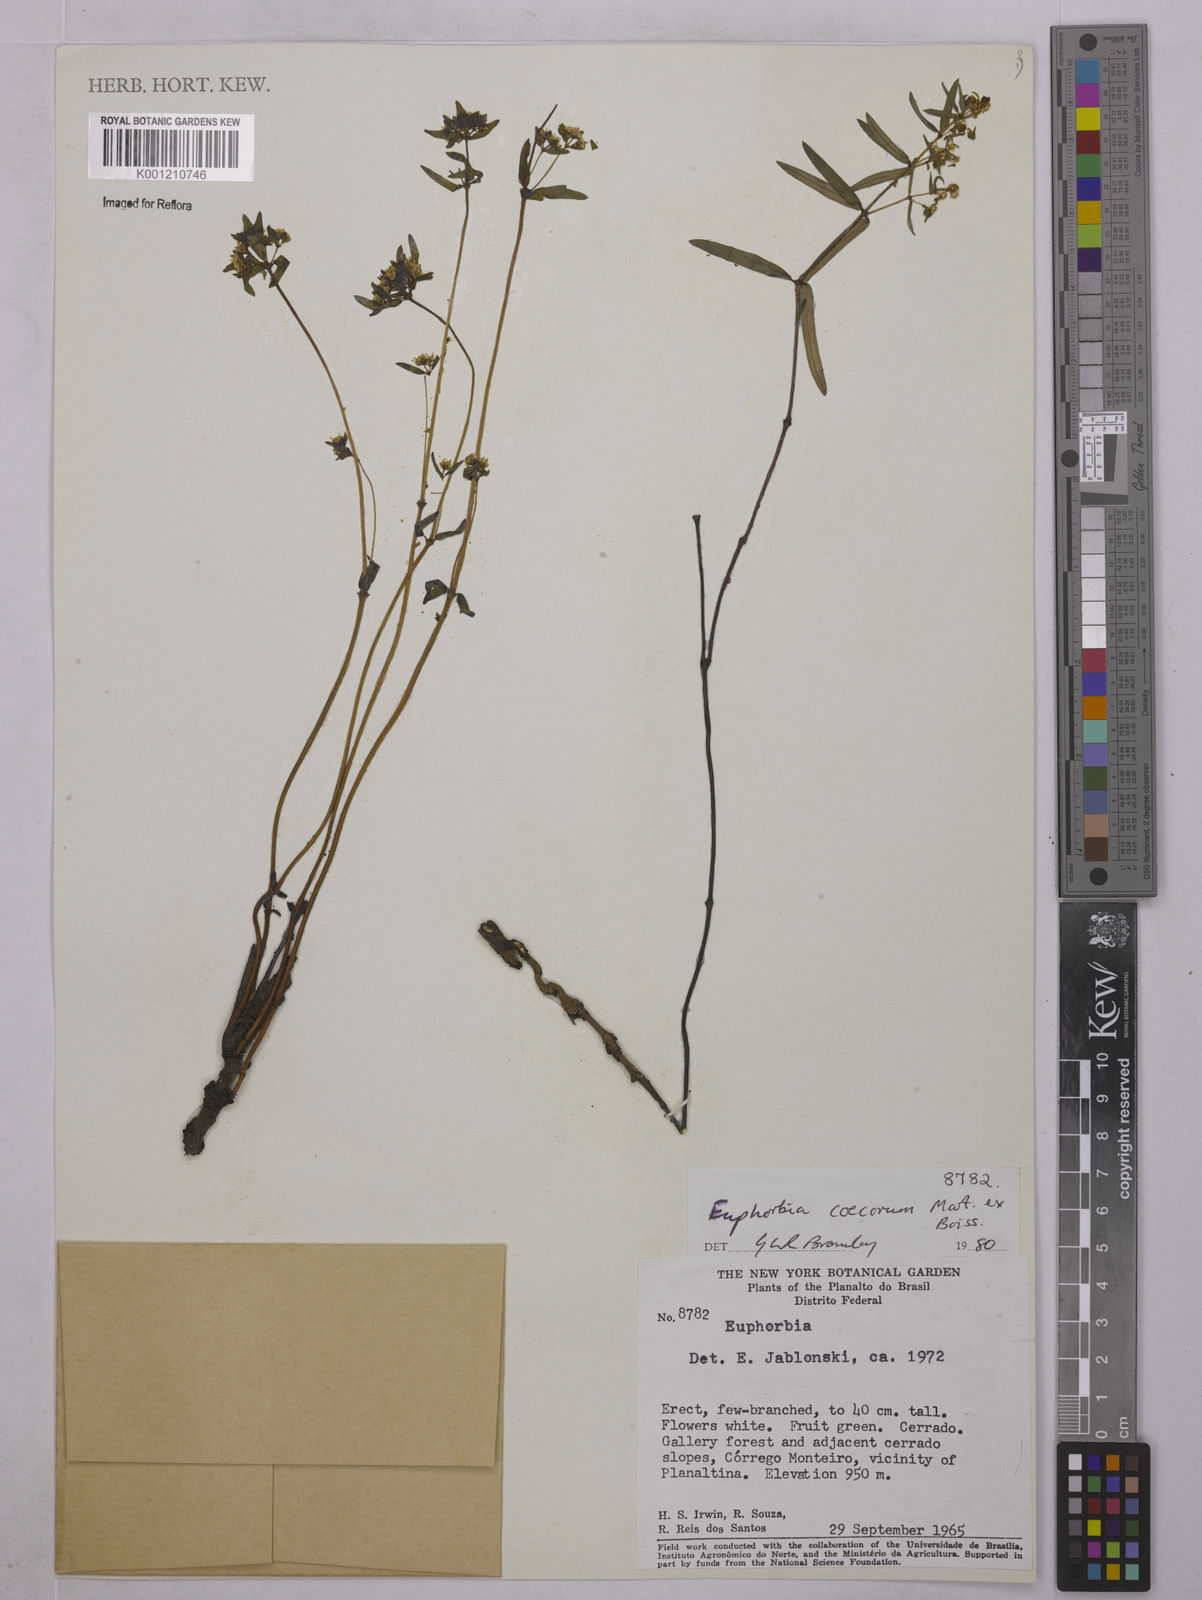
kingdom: Plantae
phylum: Tracheophyta
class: Magnoliopsida
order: Malpighiales
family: Euphorbiaceae
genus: Euphorbia
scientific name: Euphorbia potentilloides
